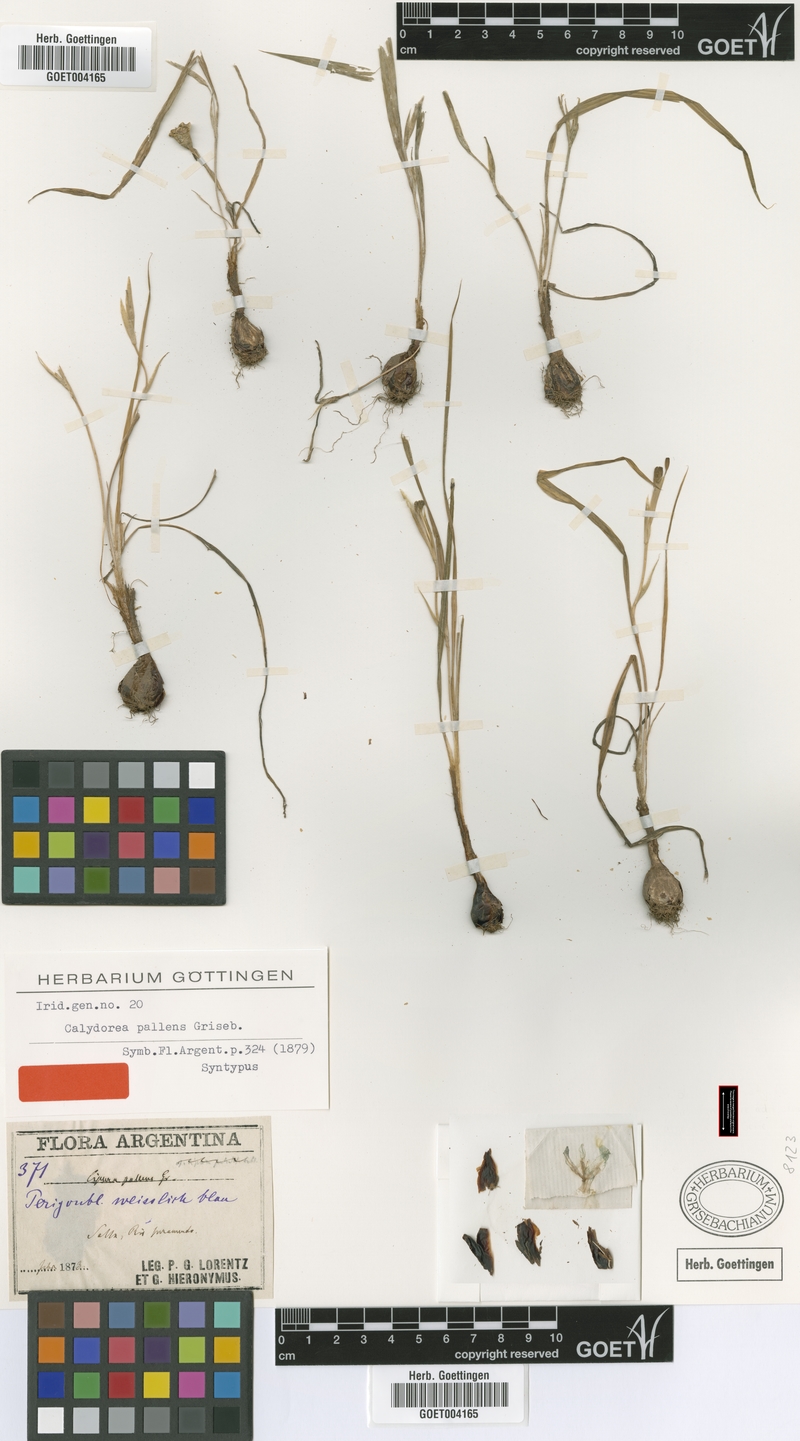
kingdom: Plantae
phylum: Tracheophyta
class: Liliopsida
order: Asparagales
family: Iridaceae
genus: Calydorea
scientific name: Calydorea pallens
